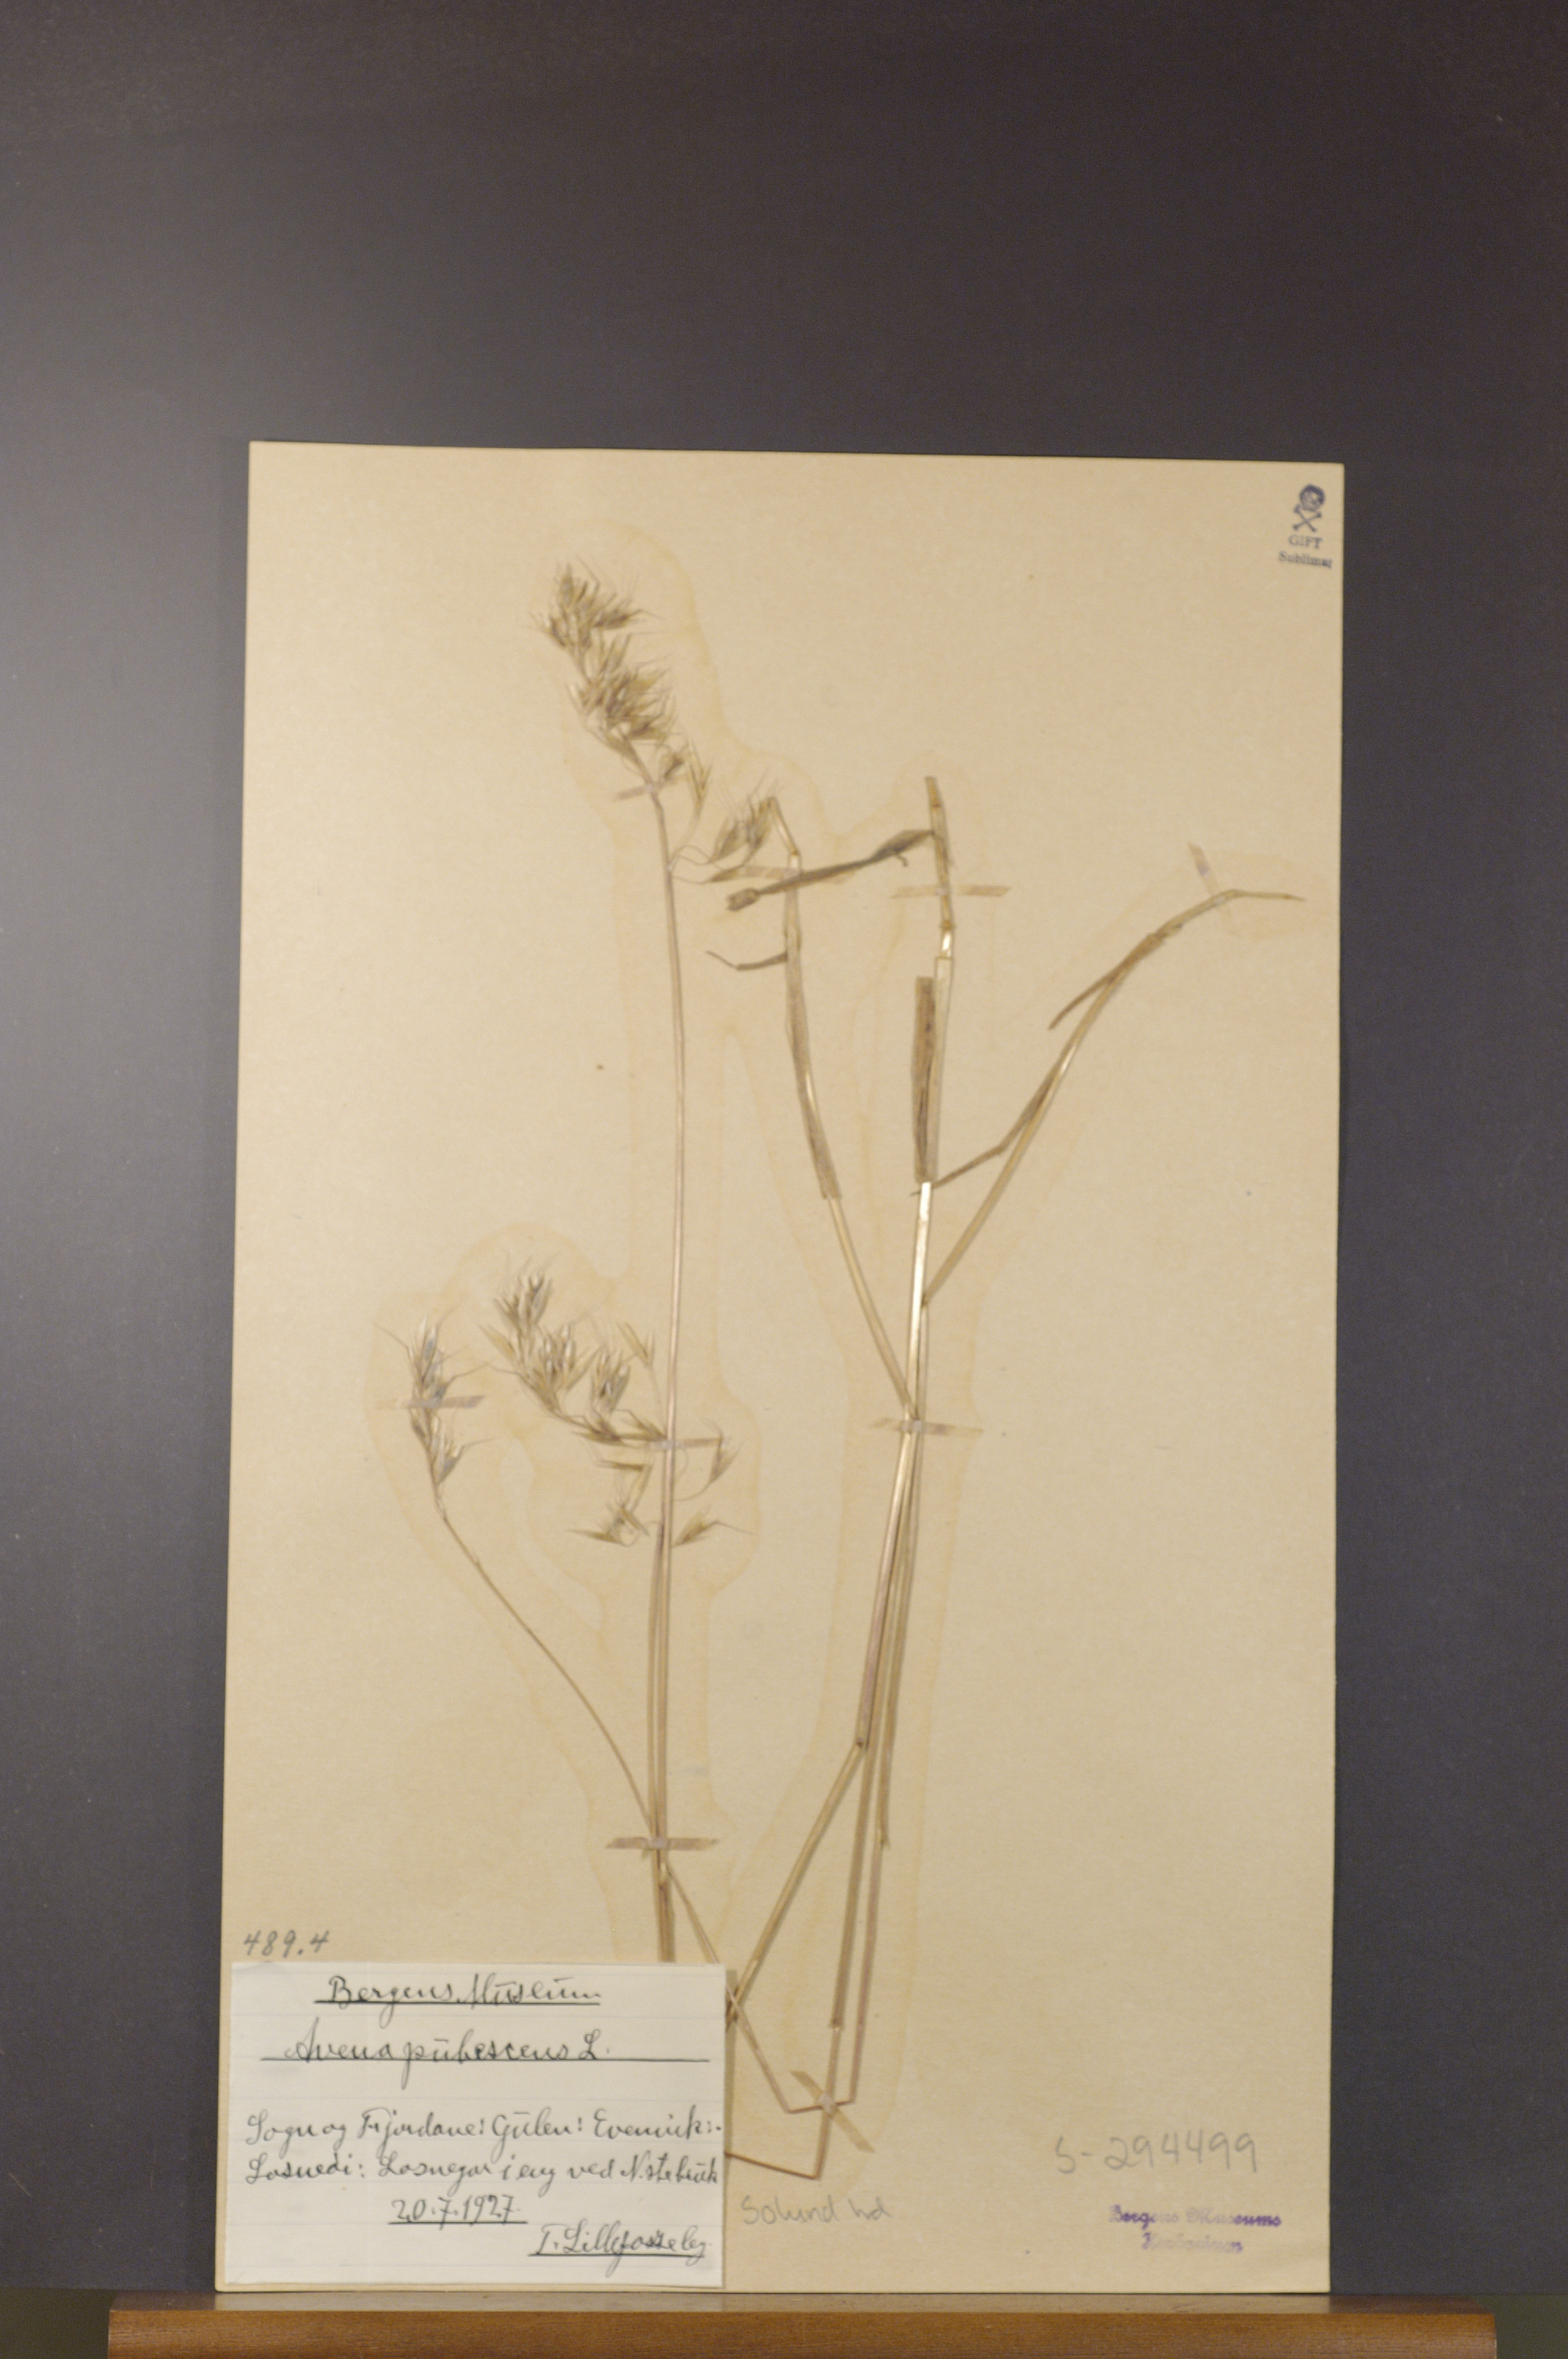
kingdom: Plantae
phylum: Tracheophyta
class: Liliopsida
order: Poales
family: Poaceae
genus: Avenula
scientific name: Avenula pubescens
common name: Downy alpine oatgrass
